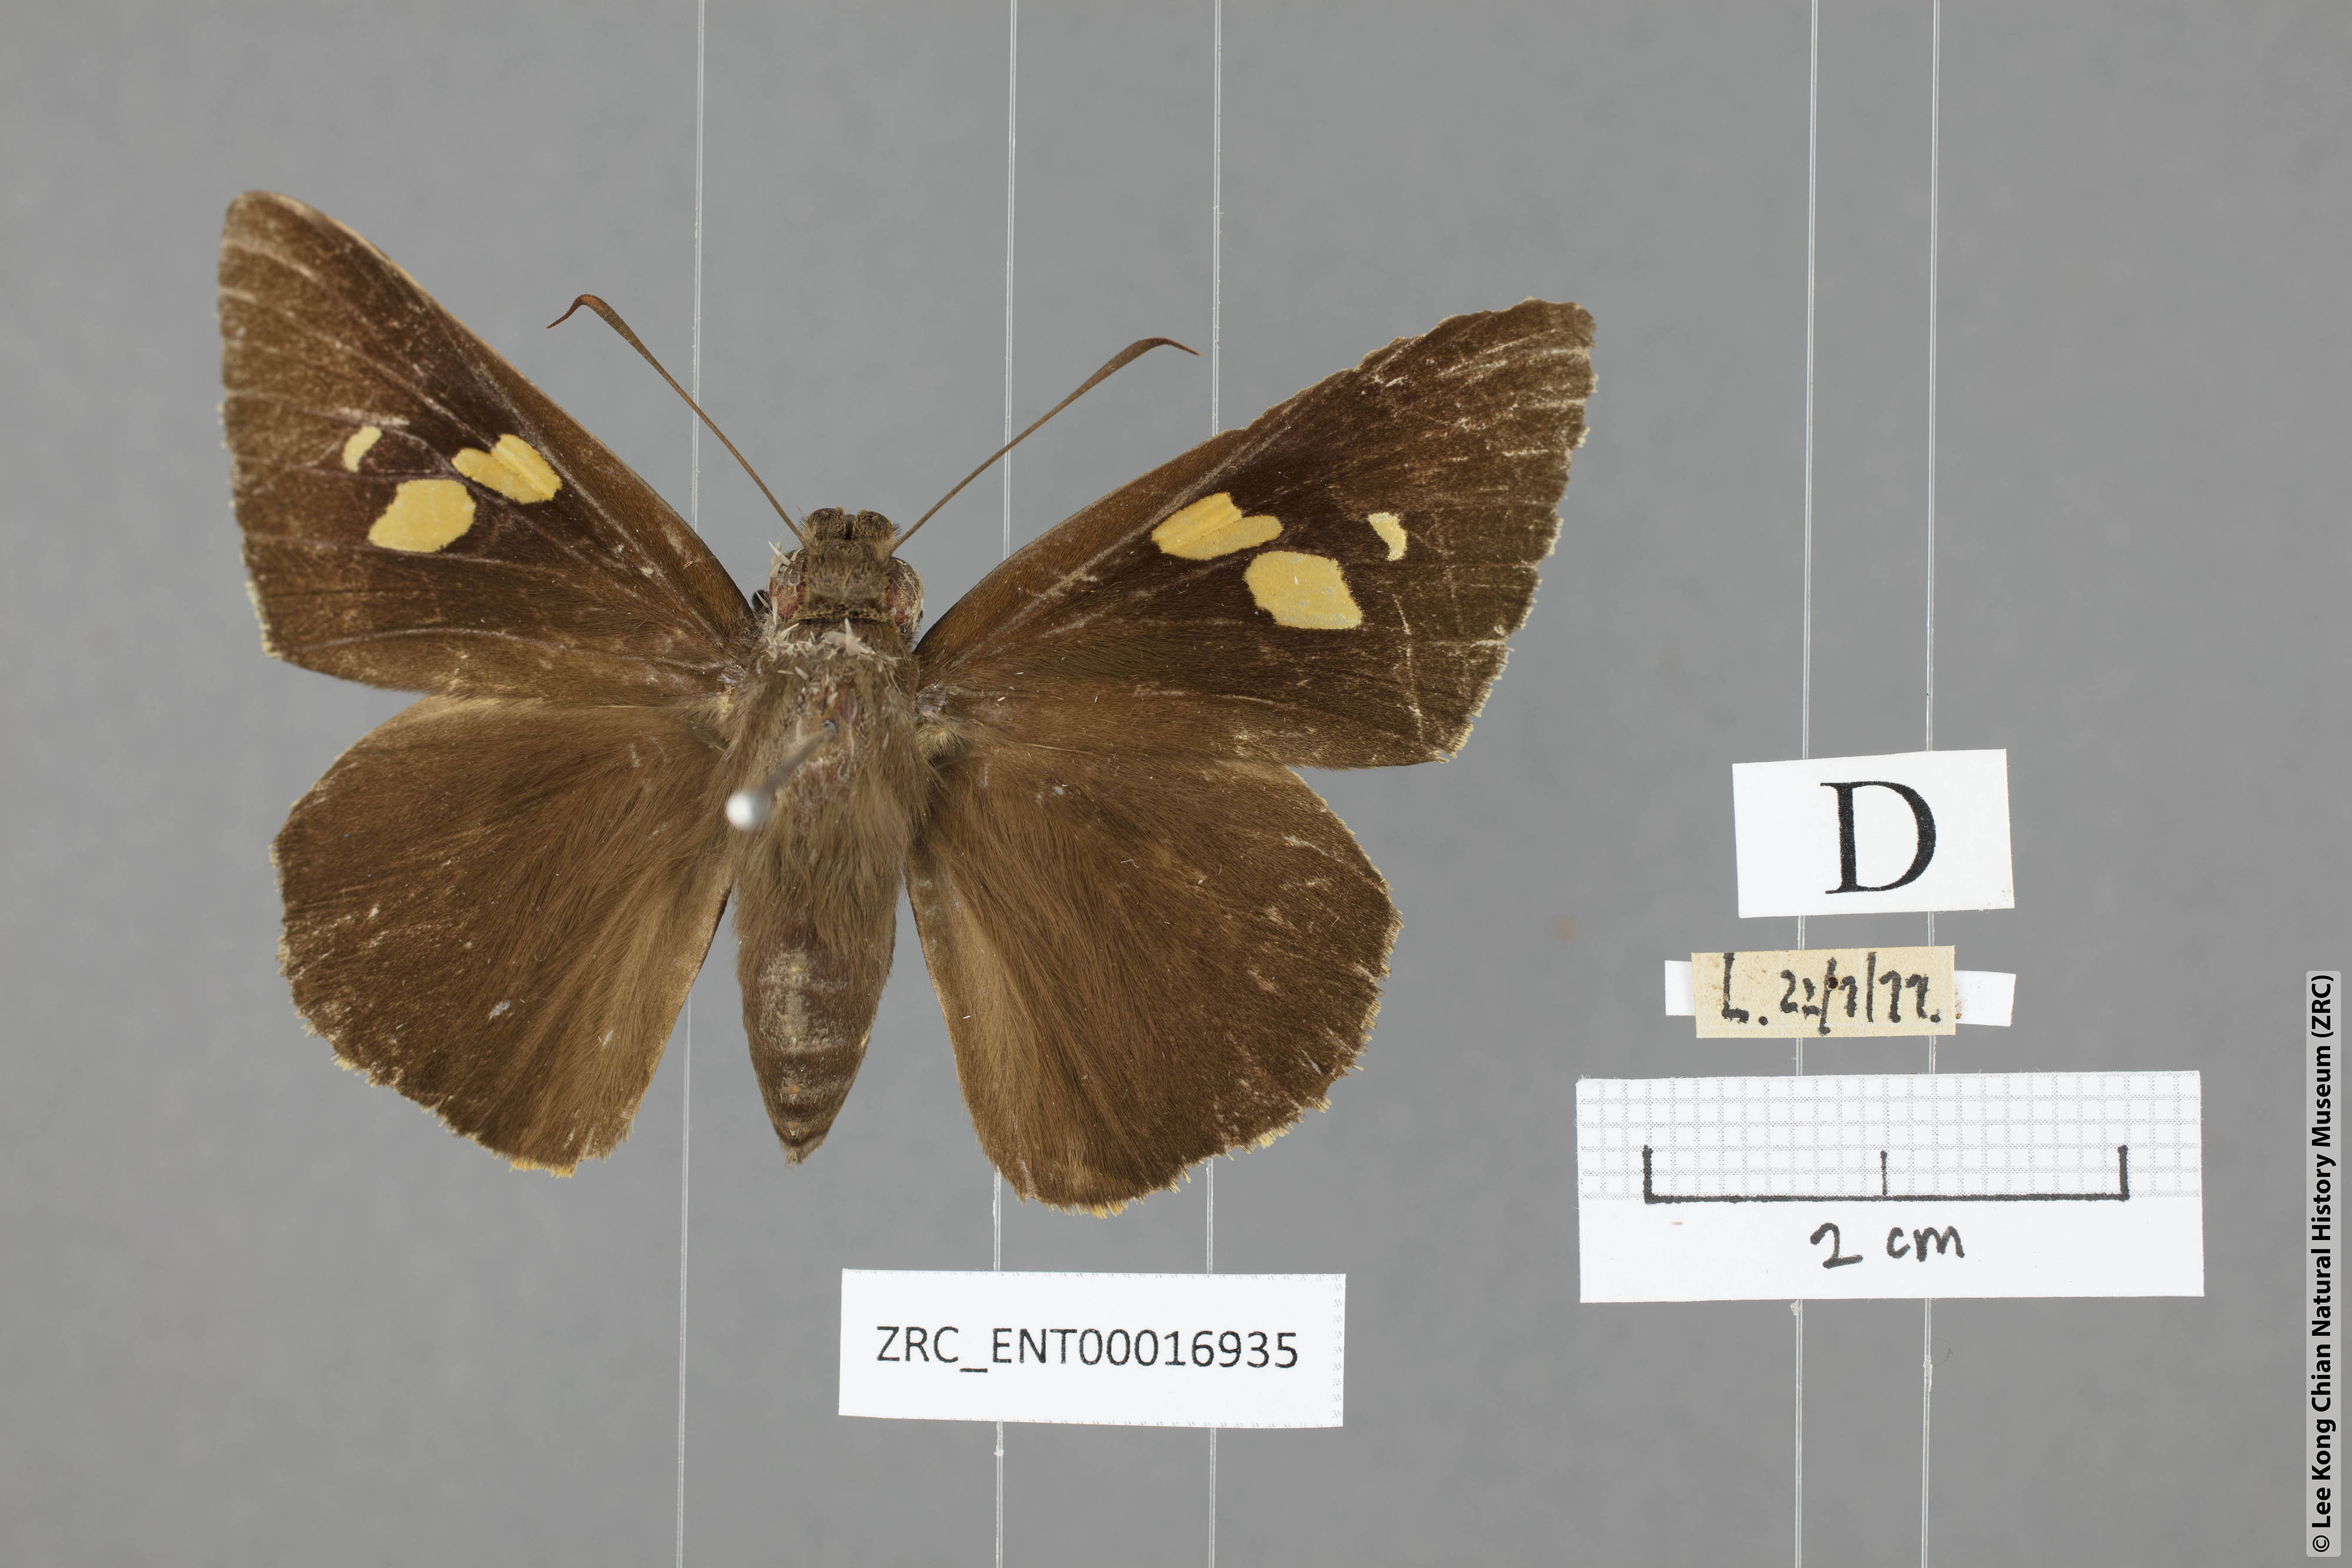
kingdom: Animalia
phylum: Arthropoda
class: Insecta
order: Lepidoptera
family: Hesperiidae
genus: Gangara
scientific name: Gangara lebadea
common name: Banded redeye
